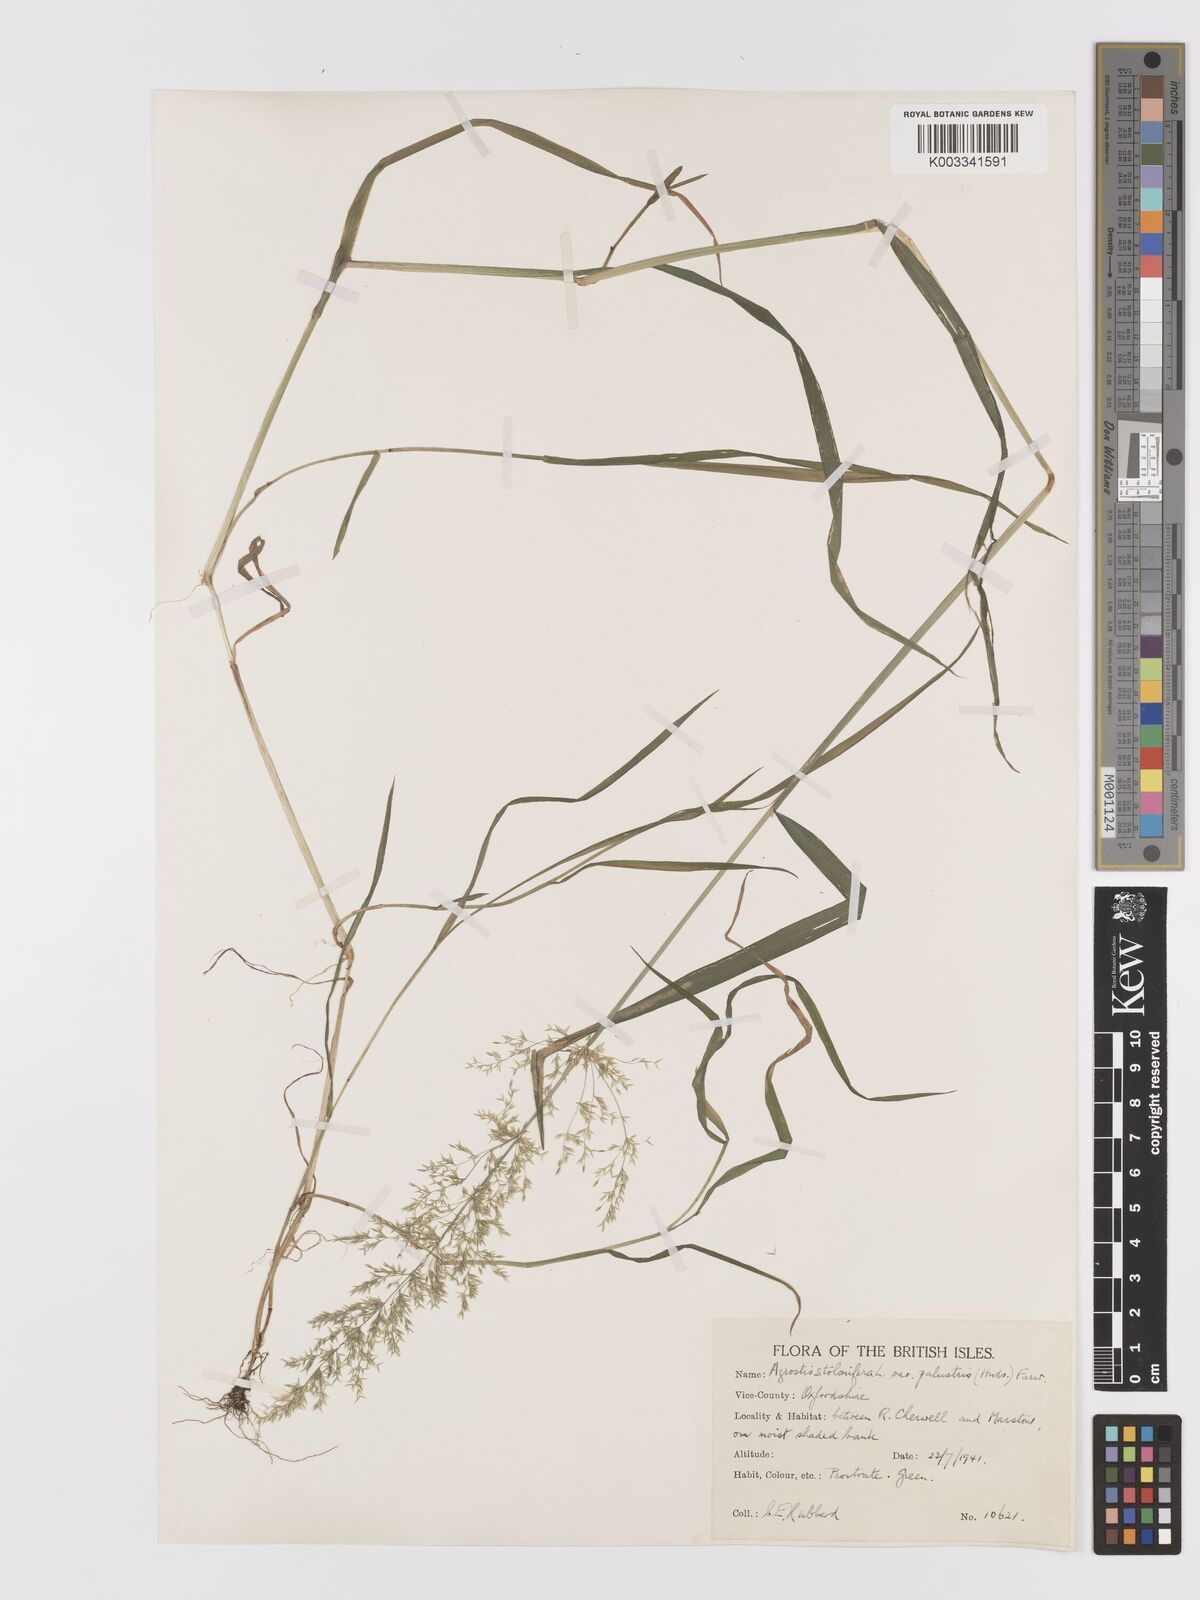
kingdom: Plantae
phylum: Tracheophyta
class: Liliopsida
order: Poales
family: Poaceae
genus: Agrostis
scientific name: Agrostis stolonifera
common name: Creeping bentgrass
